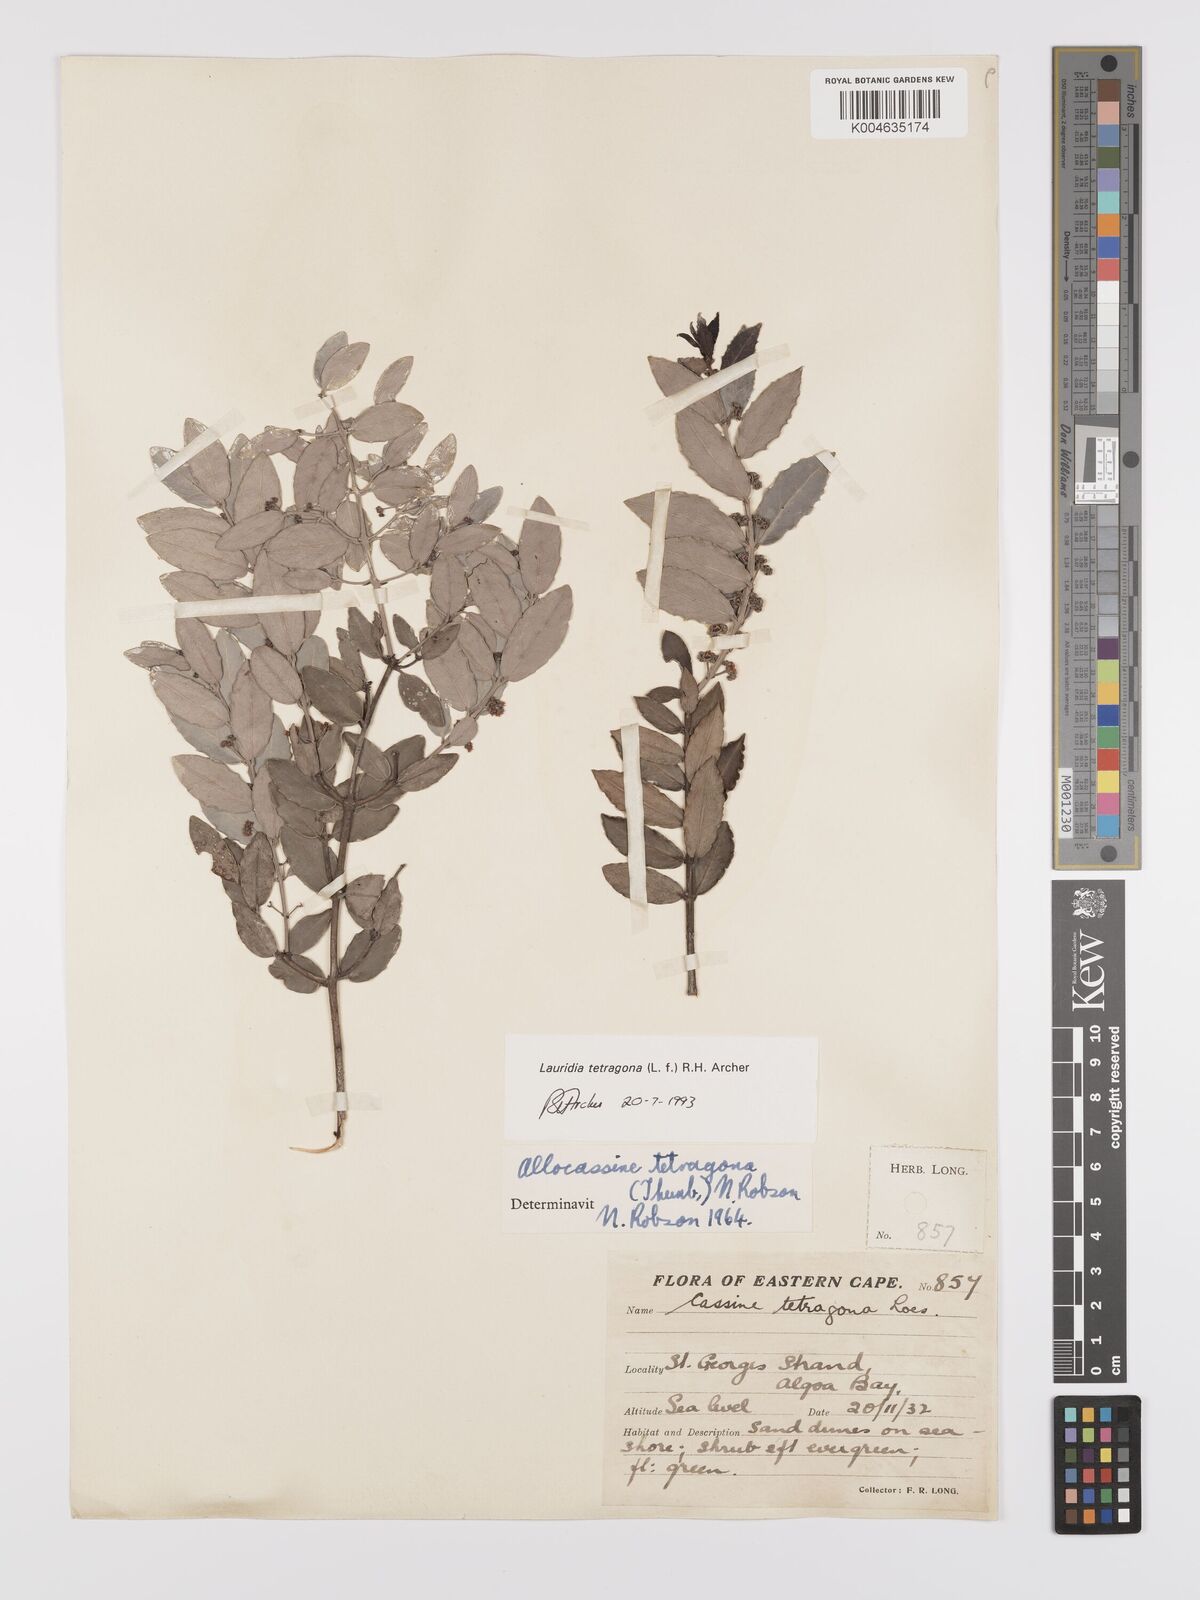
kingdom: Plantae
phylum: Tracheophyta
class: Magnoliopsida
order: Celastrales
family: Celastraceae
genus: Lauridia
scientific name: Lauridia tetragona
